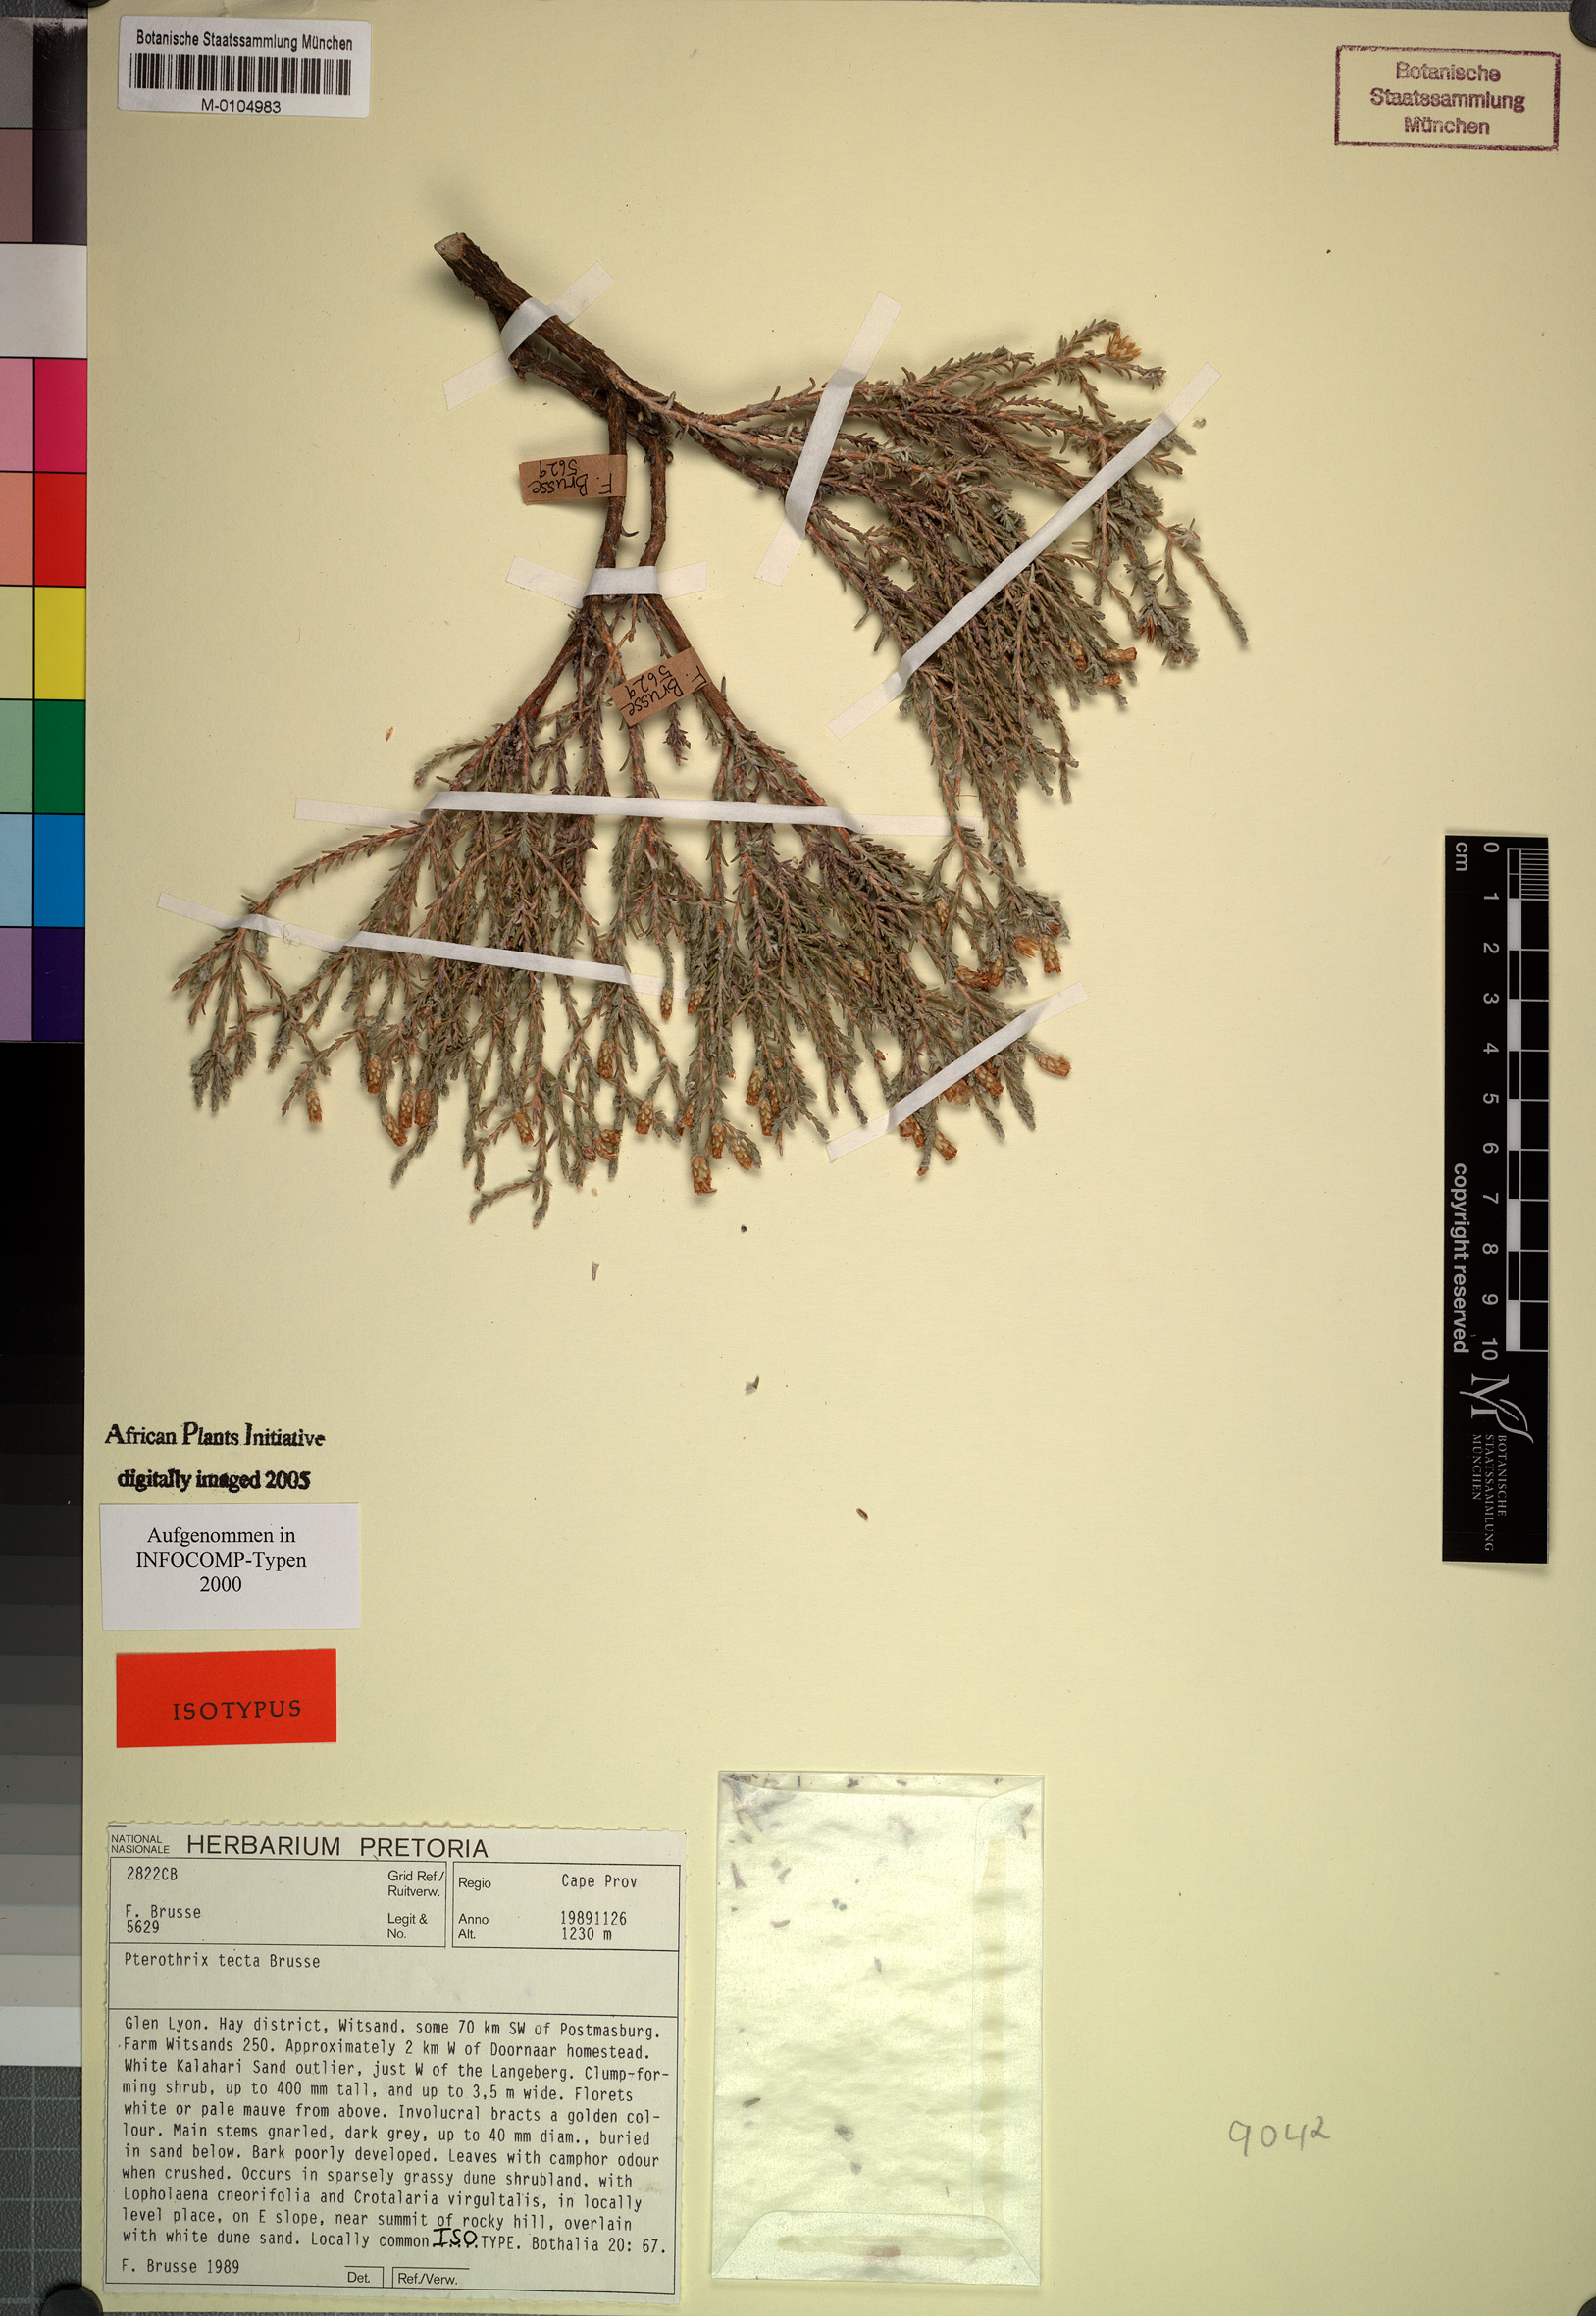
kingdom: Plantae
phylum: Tracheophyta
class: Magnoliopsida
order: Asterales
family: Asteraceae
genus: Amphiglossa
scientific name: Amphiglossa tecta
